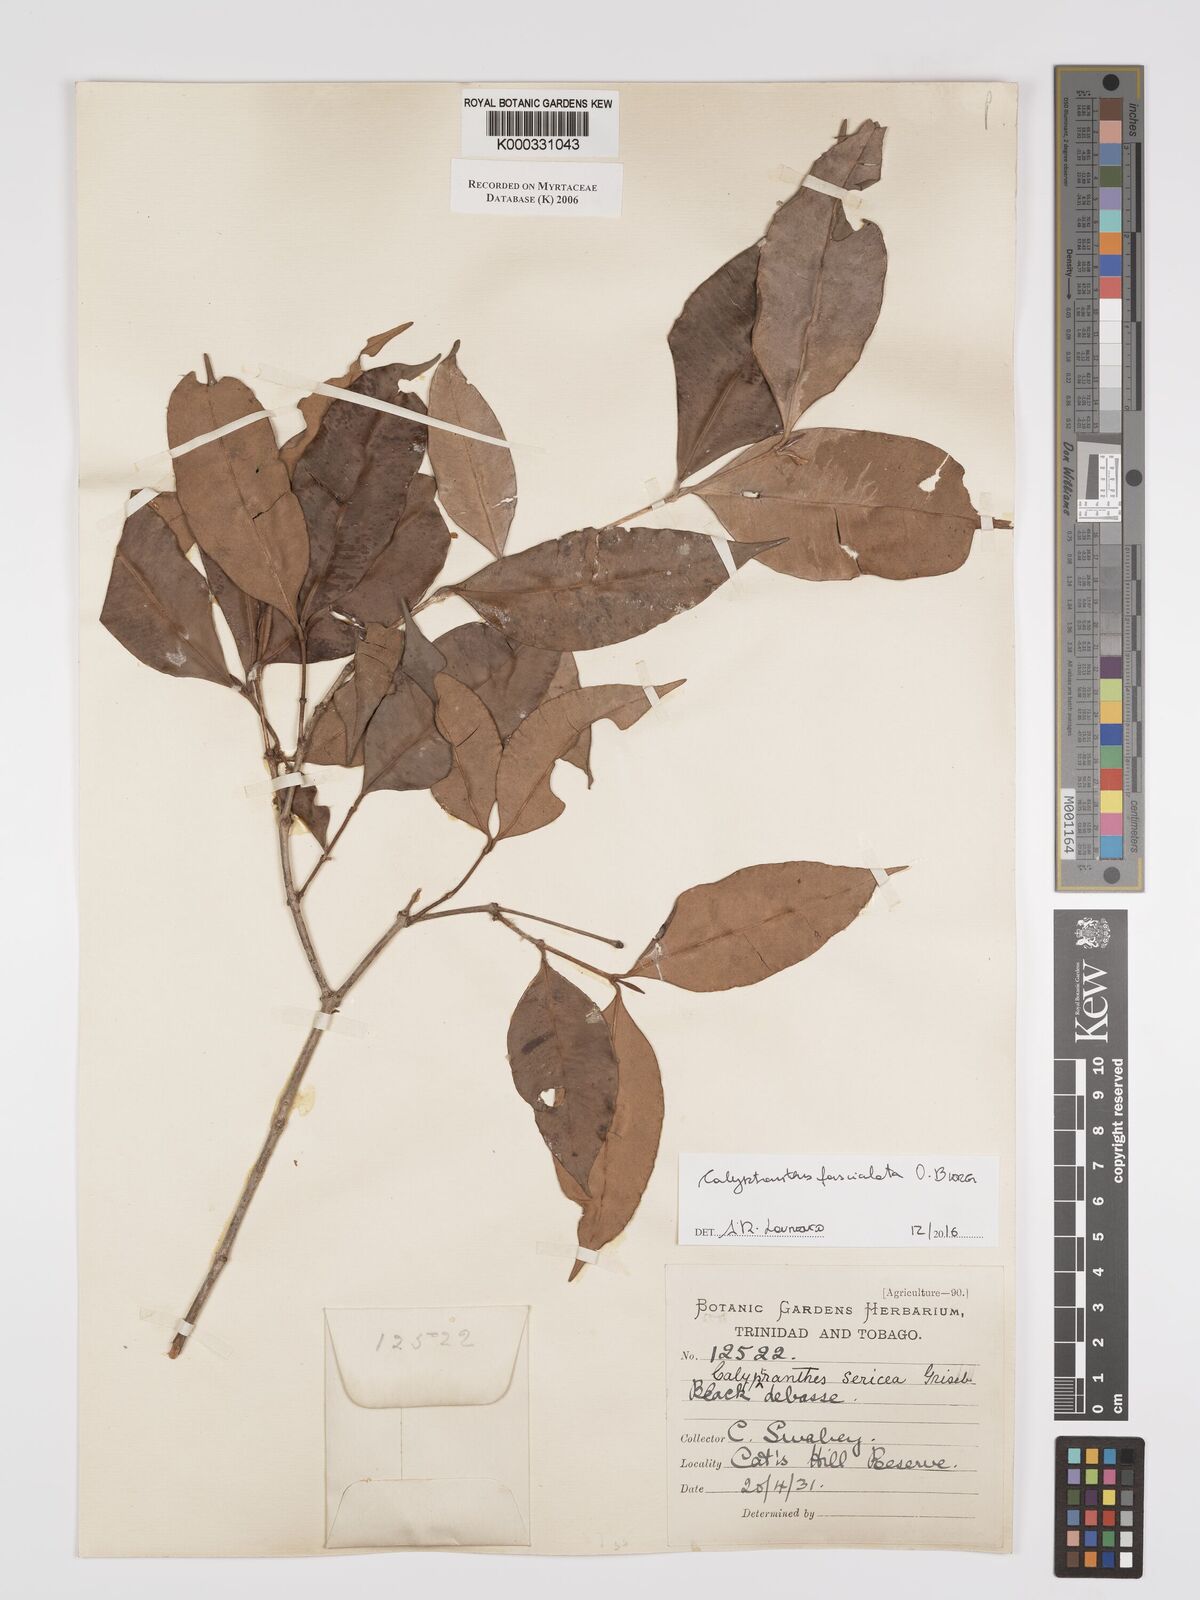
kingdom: Plantae
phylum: Tracheophyta
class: Magnoliopsida
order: Myrtales
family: Myrtaceae
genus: Myrcia
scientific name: Myrcia fasciculata
